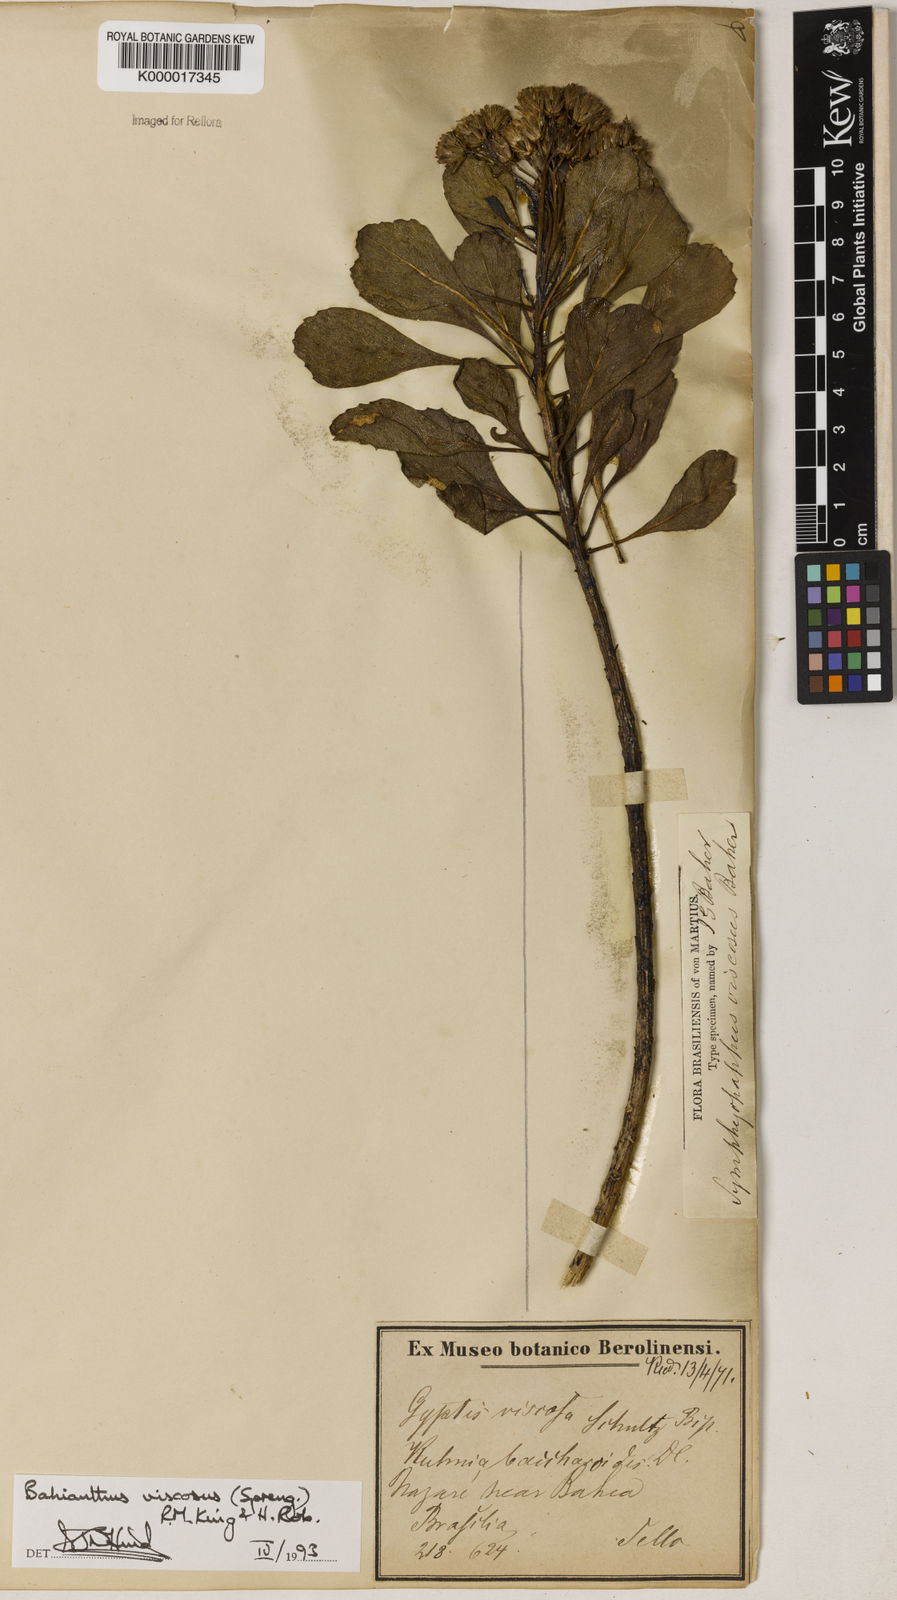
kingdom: Plantae
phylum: Tracheophyta
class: Magnoliopsida
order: Asterales
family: Asteraceae
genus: Bahianthus
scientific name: Bahianthus viscosus
